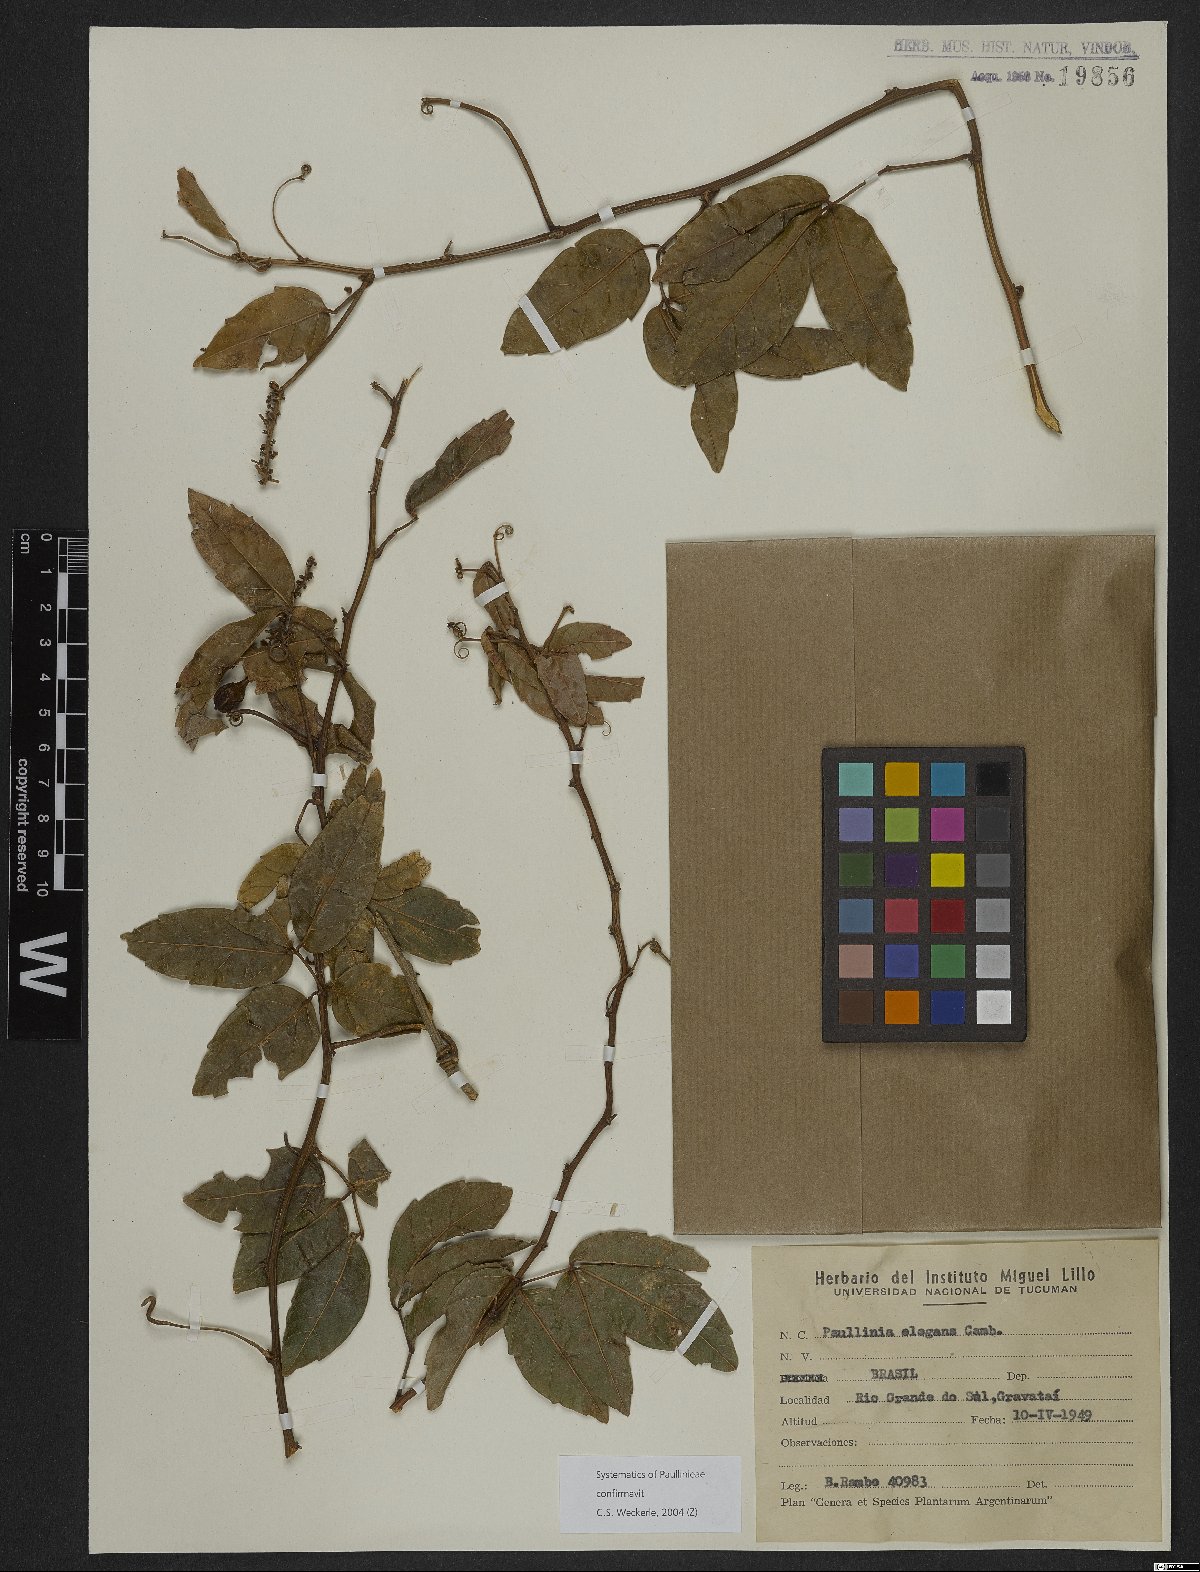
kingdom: Plantae
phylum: Tracheophyta
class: Magnoliopsida
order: Sapindales
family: Sapindaceae
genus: Paullinia
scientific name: Paullinia elegans
